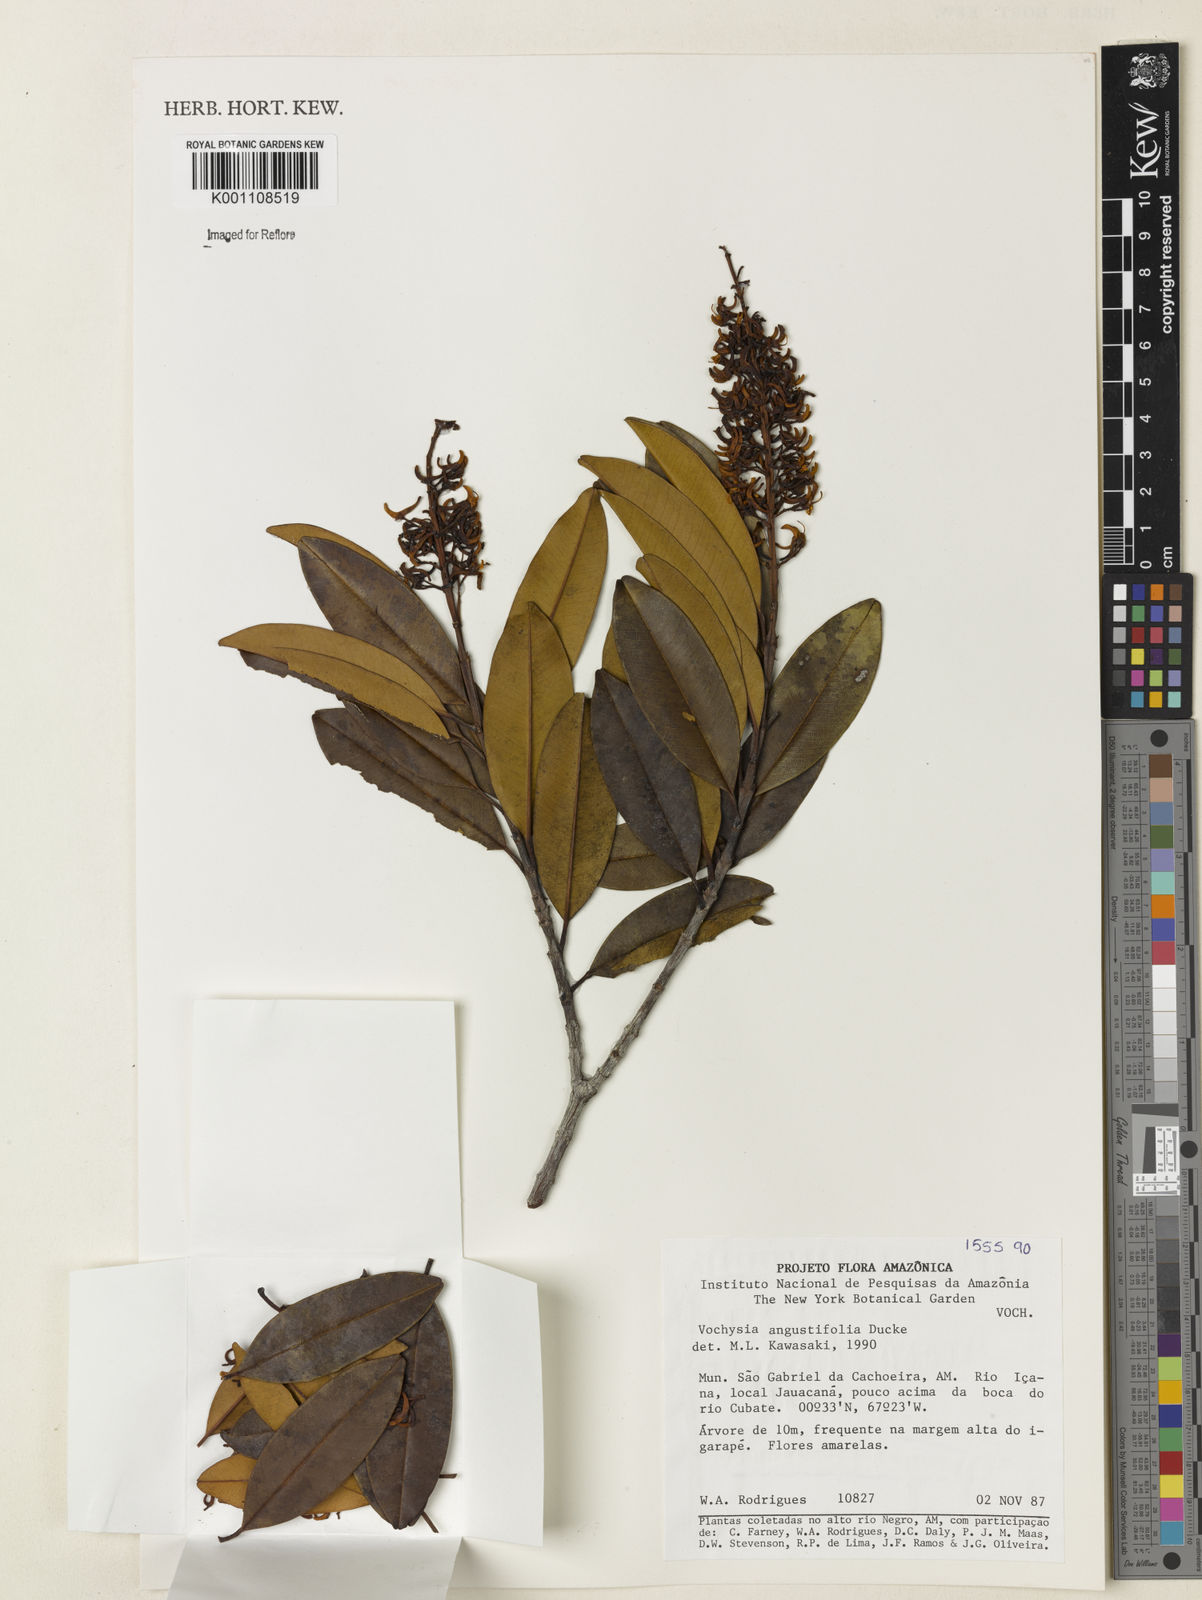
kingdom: Plantae
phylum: Tracheophyta
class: Magnoliopsida
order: Myrtales
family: Vochysiaceae
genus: Vochysia
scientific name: Vochysia angustifolia
